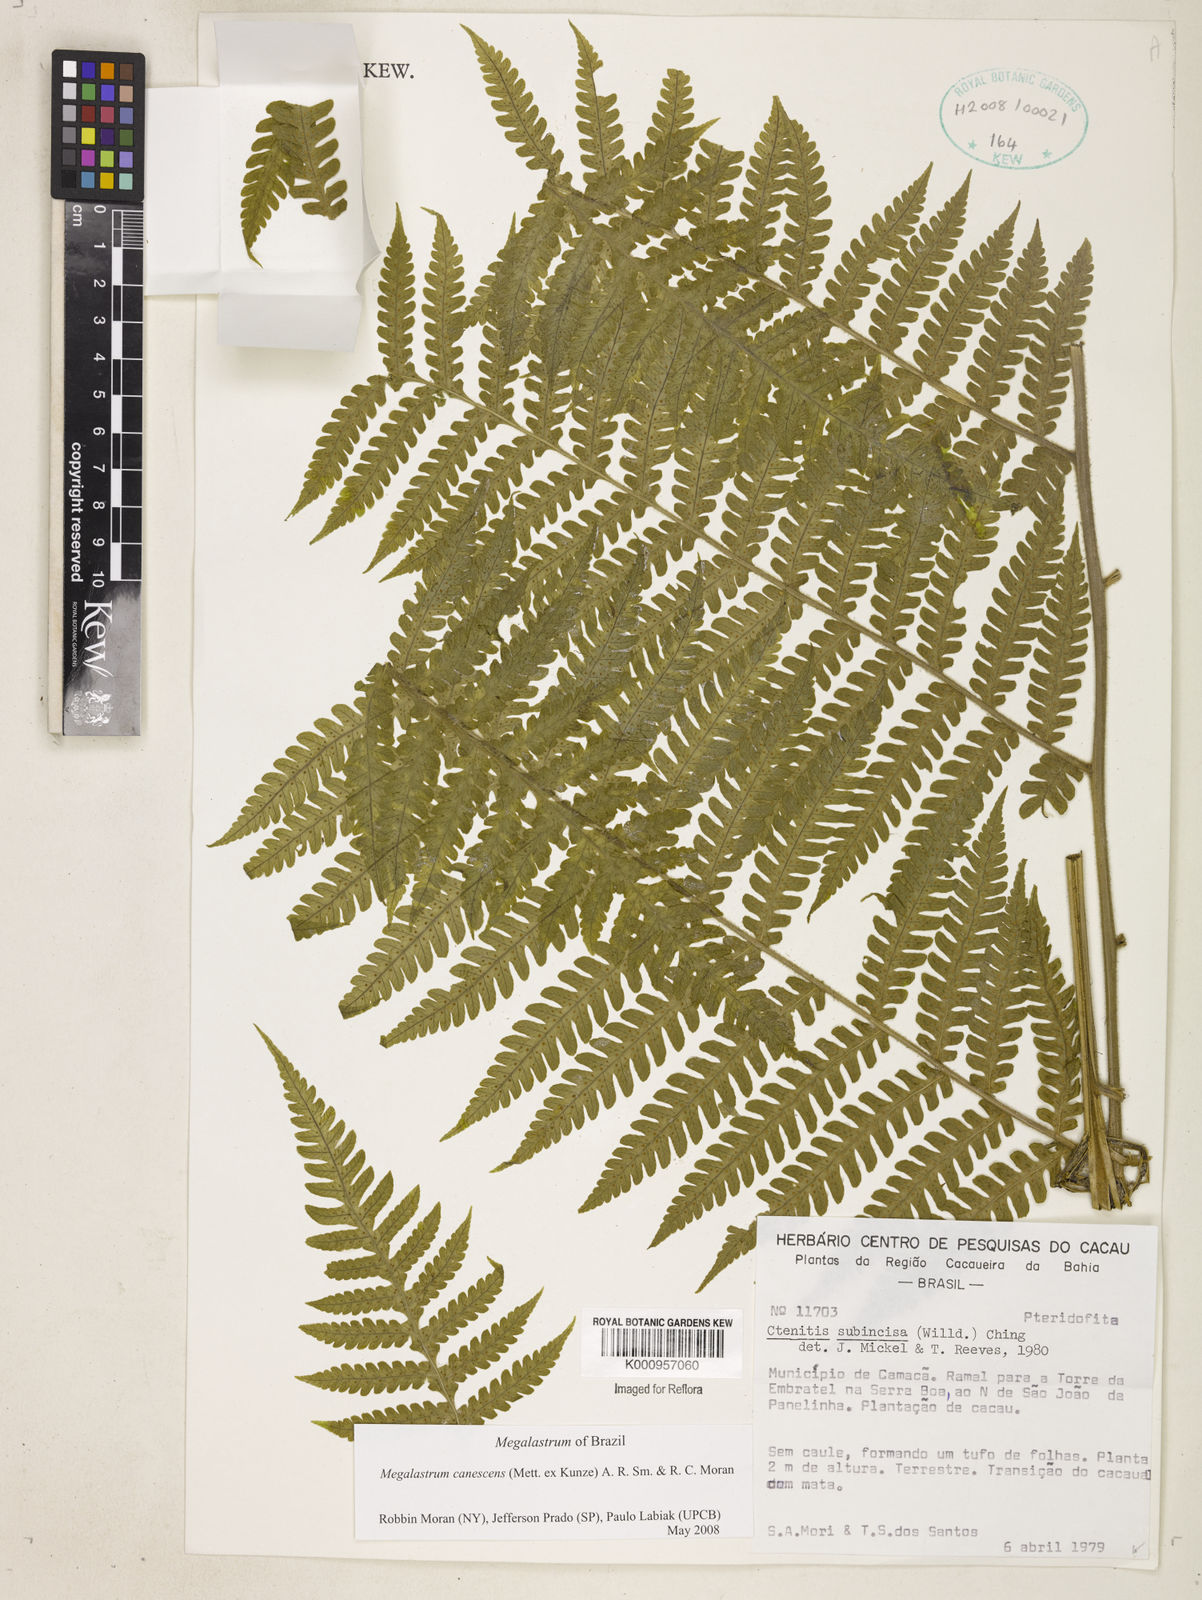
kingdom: Plantae
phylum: Tracheophyta
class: Polypodiopsida
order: Polypodiales
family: Dryopteridaceae
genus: Megalastrum
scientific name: Megalastrum canescens
